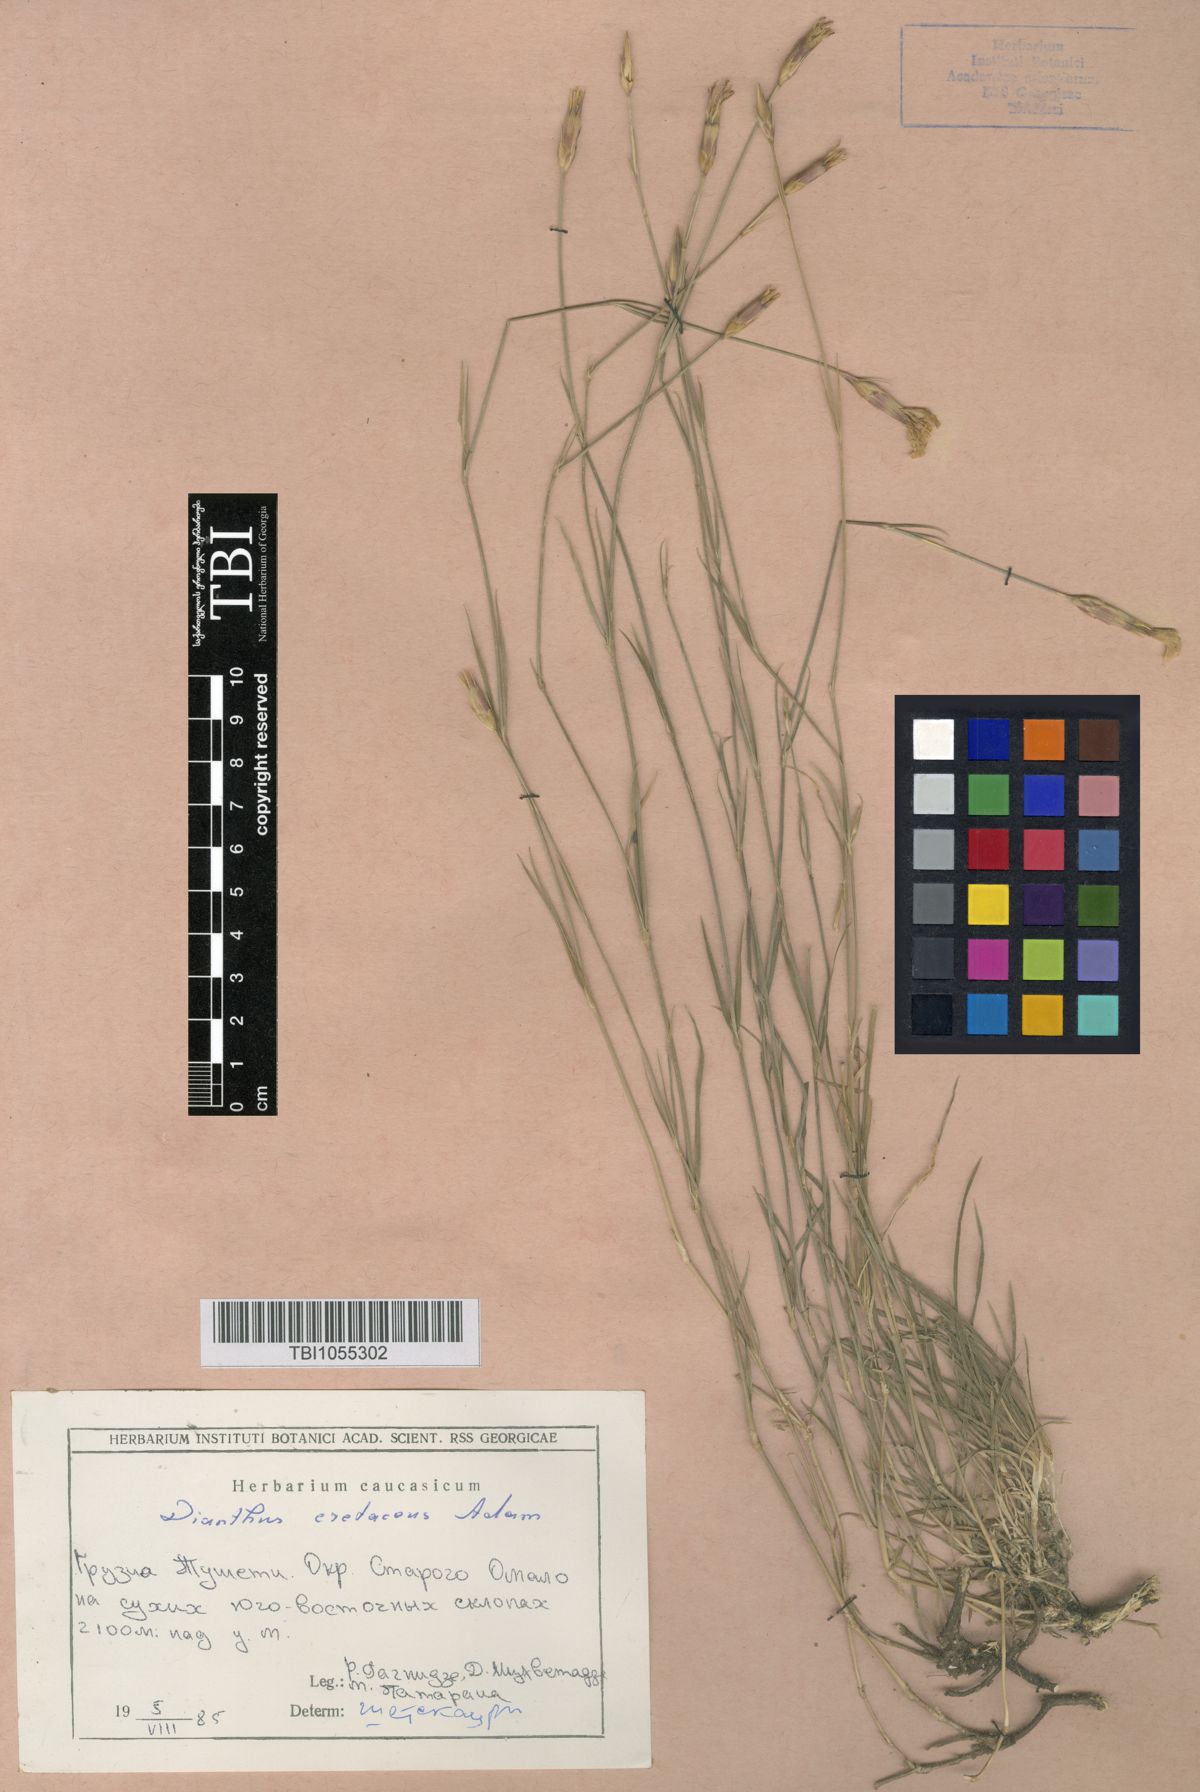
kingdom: Plantae
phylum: Tracheophyta
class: Magnoliopsida
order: Caryophyllales
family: Caryophyllaceae
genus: Dianthus
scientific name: Dianthus cretaceus
